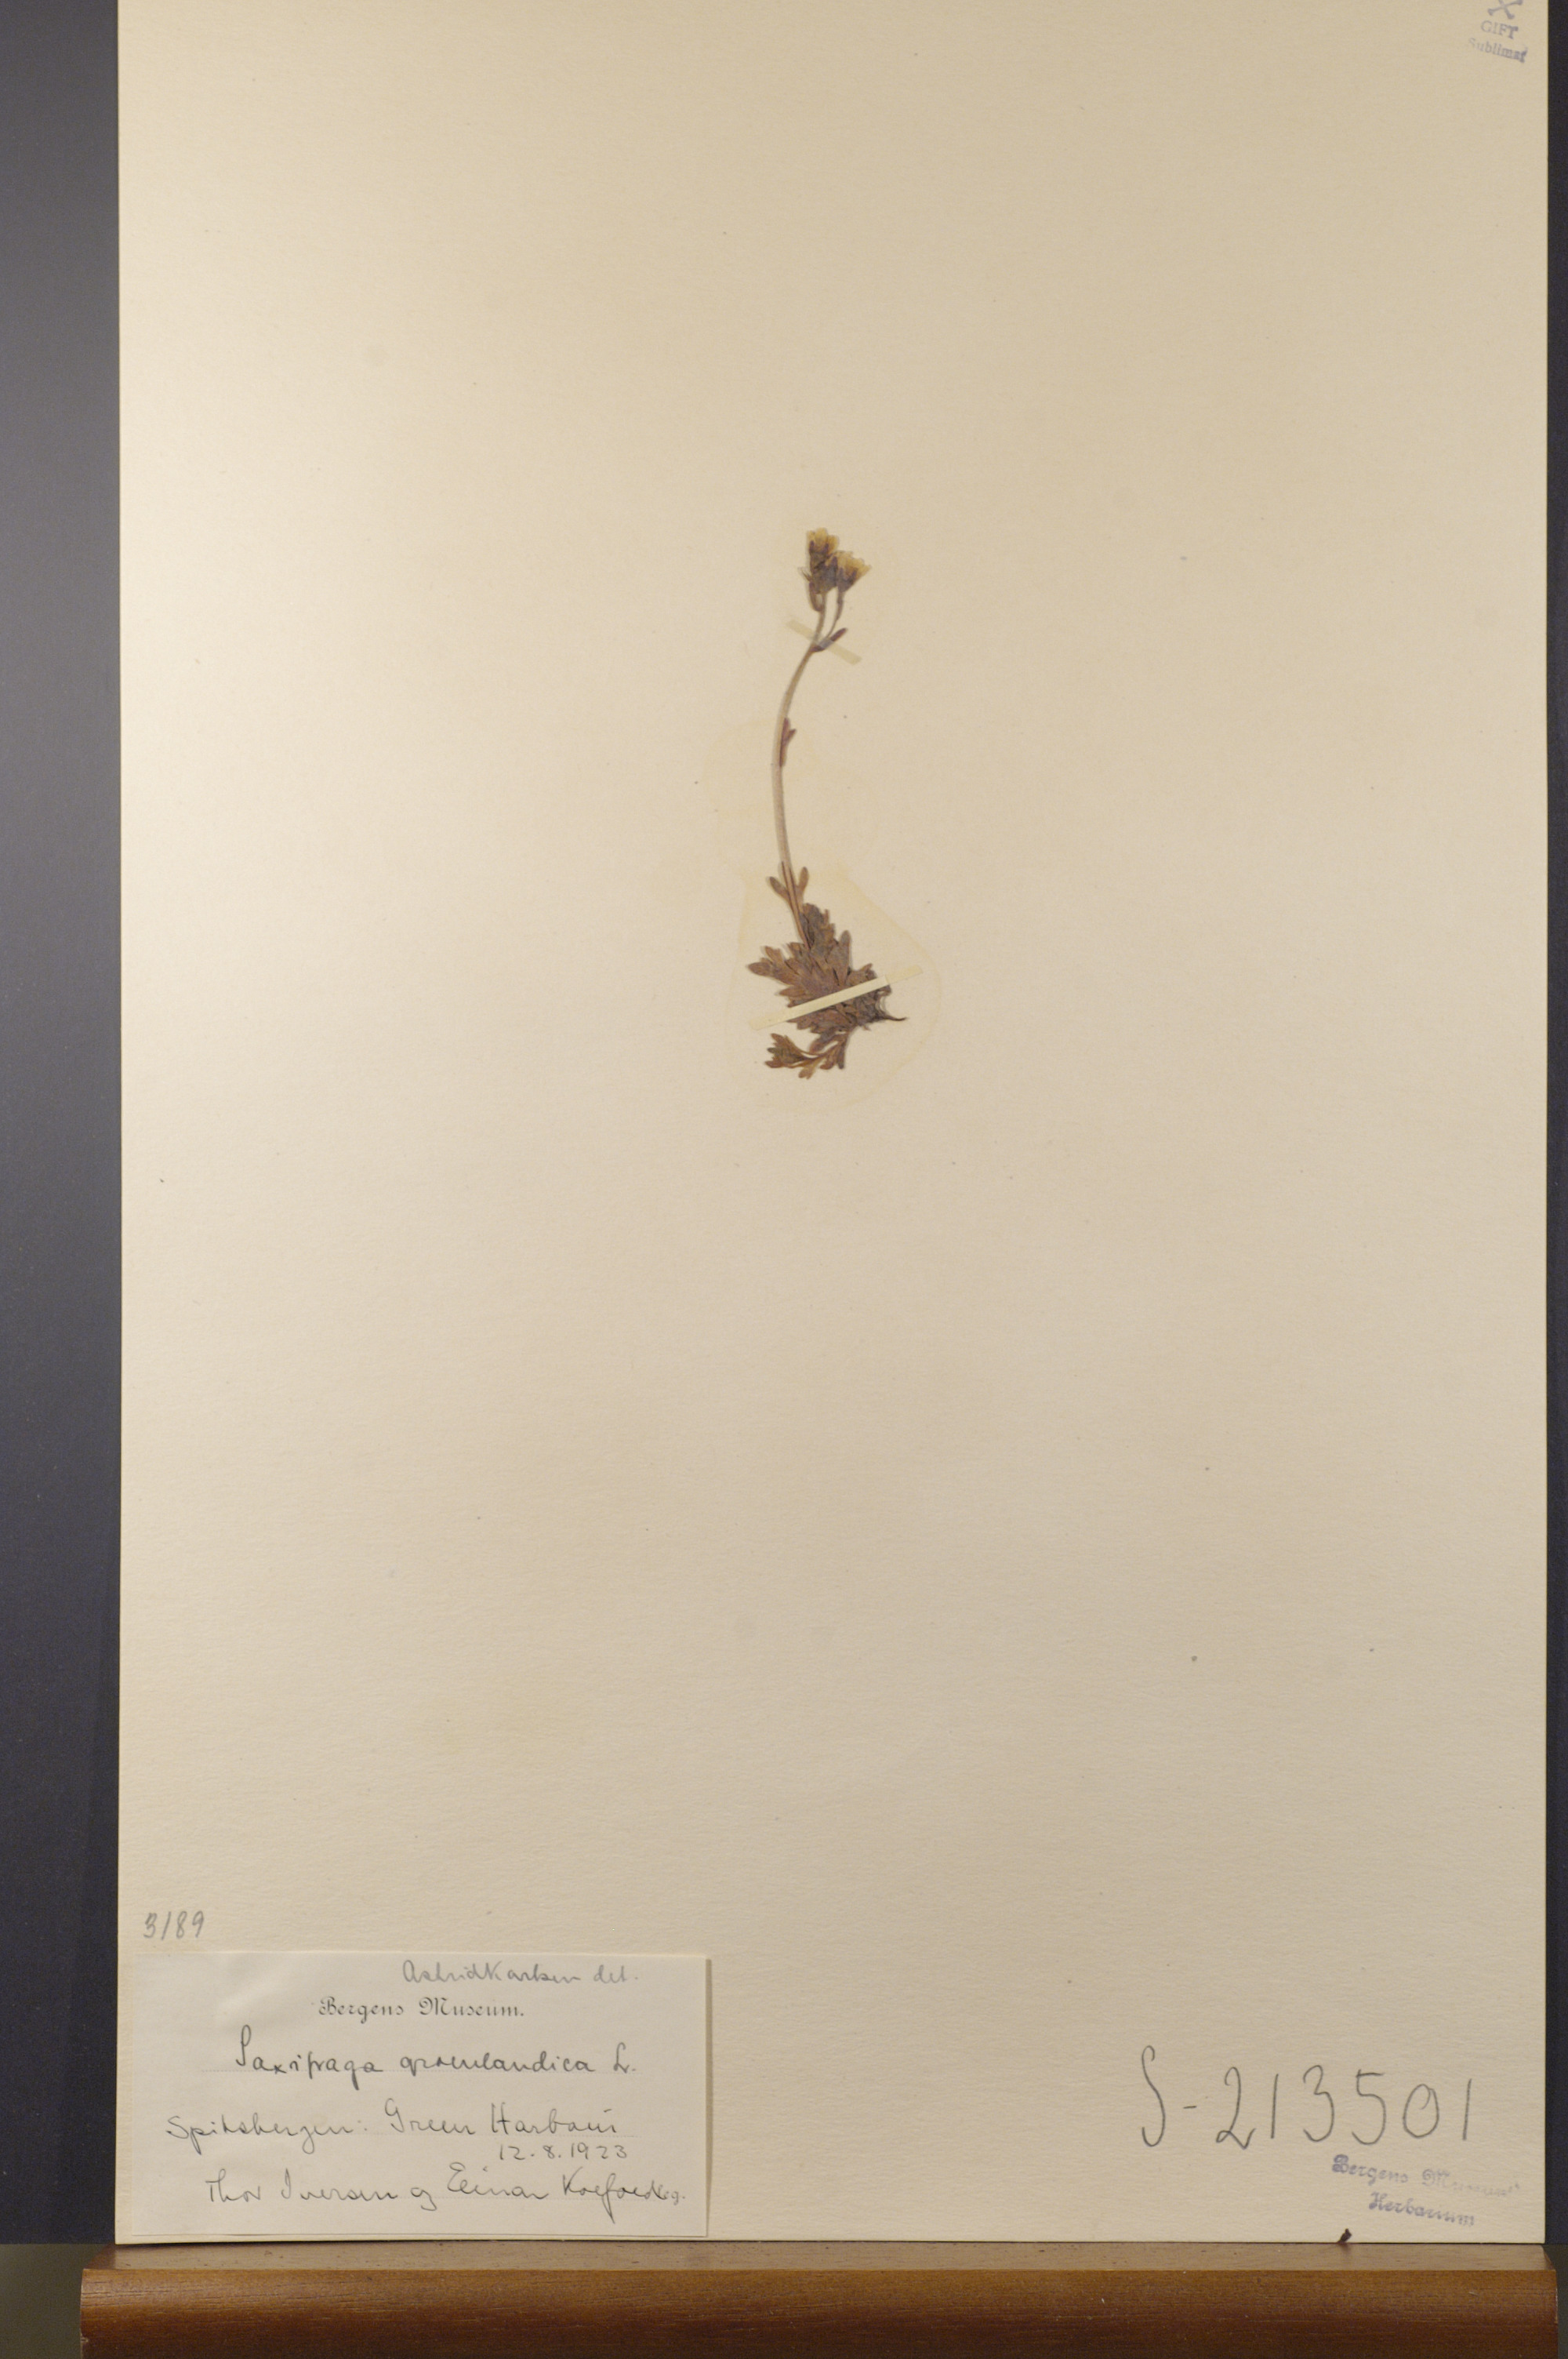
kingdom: Plantae
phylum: Tracheophyta
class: Magnoliopsida
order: Saxifragales
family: Saxifragaceae
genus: Saxifraga
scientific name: Saxifraga cespitosa
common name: Tufted saxifrage
